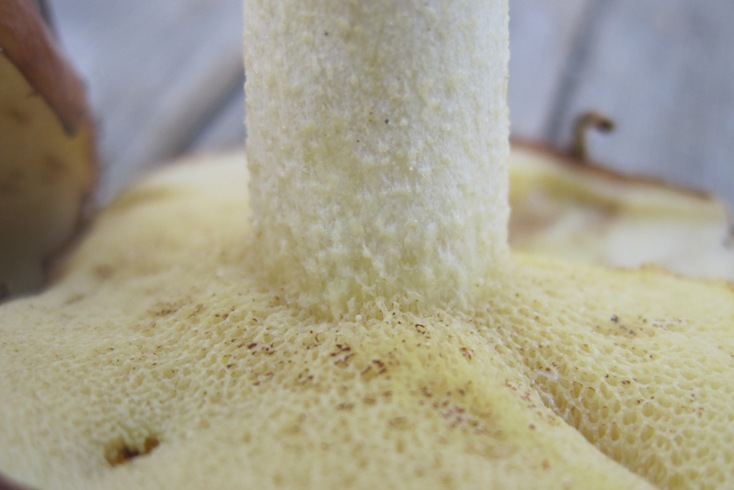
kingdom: Fungi
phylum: Basidiomycota
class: Agaricomycetes
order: Boletales
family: Suillaceae
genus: Suillus
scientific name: Suillus granulatus
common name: kornet slimrørhat
